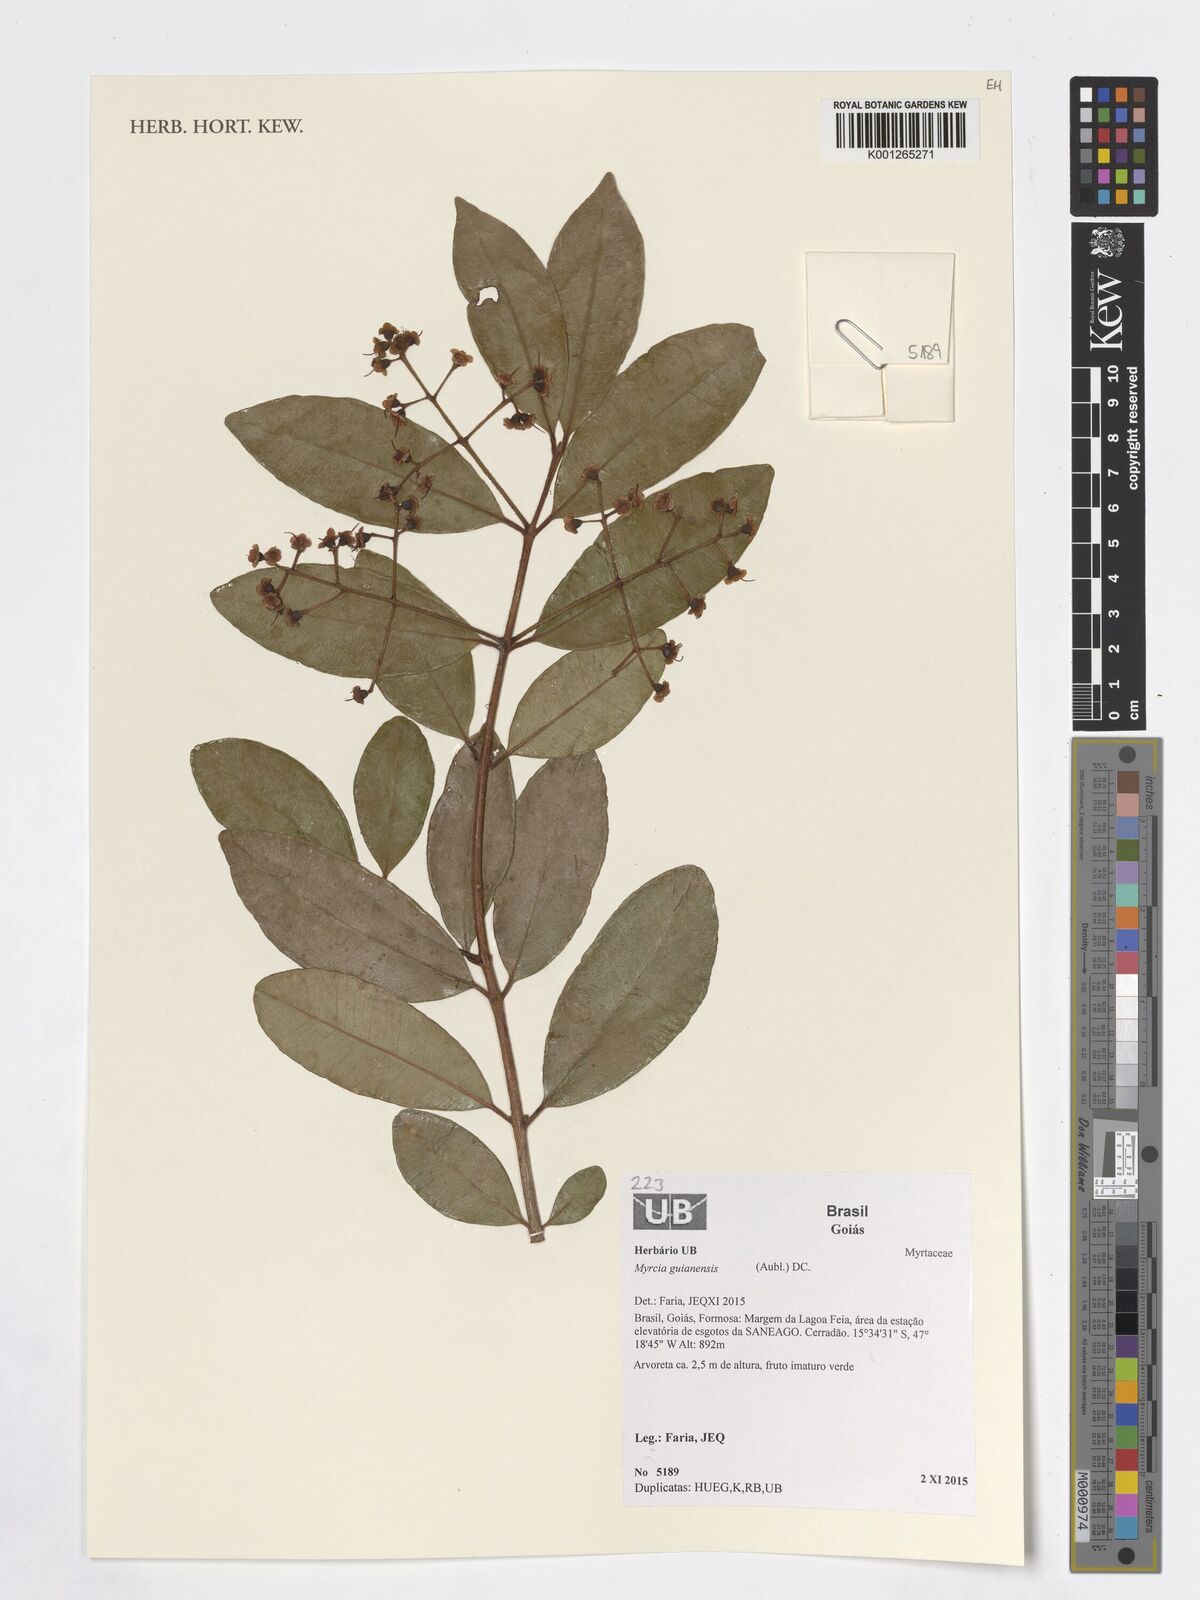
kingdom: Plantae
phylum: Tracheophyta
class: Magnoliopsida
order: Myrtales
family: Myrtaceae
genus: Myrcia
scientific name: Myrcia guianensis
